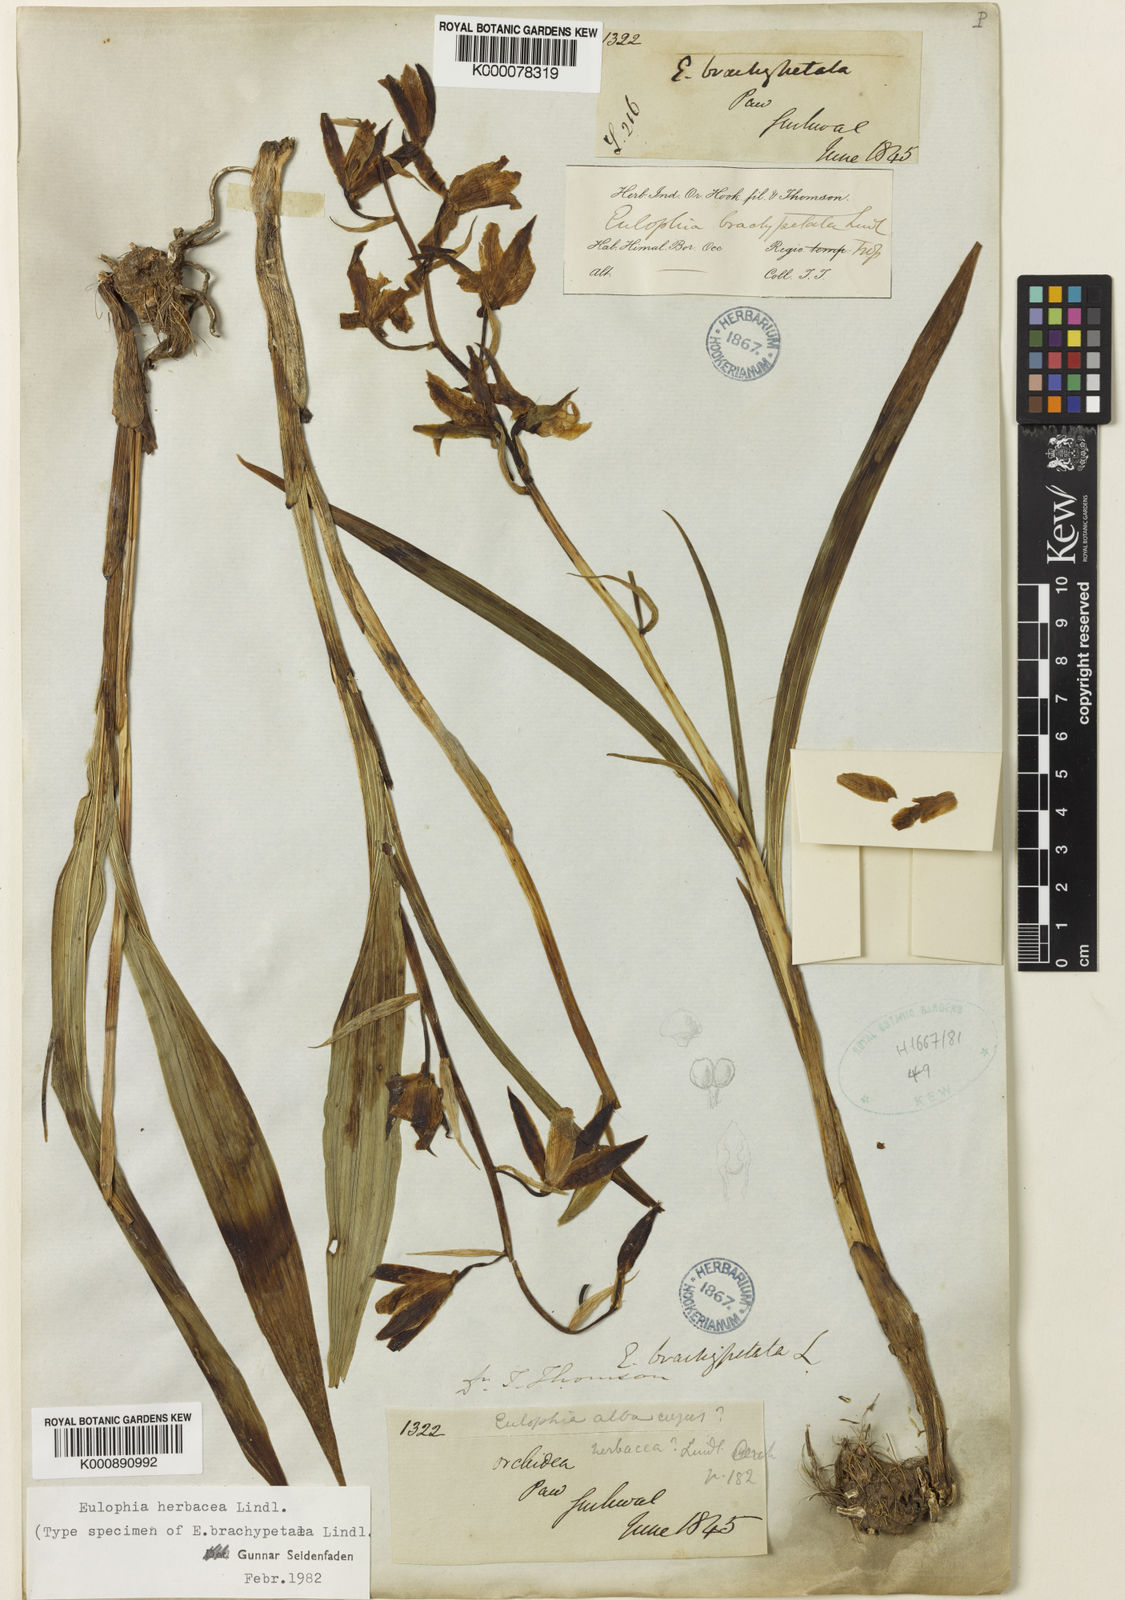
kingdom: Plantae
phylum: Tracheophyta
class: Liliopsida
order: Asparagales
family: Orchidaceae
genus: Eulophia
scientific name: Eulophia herbacea
